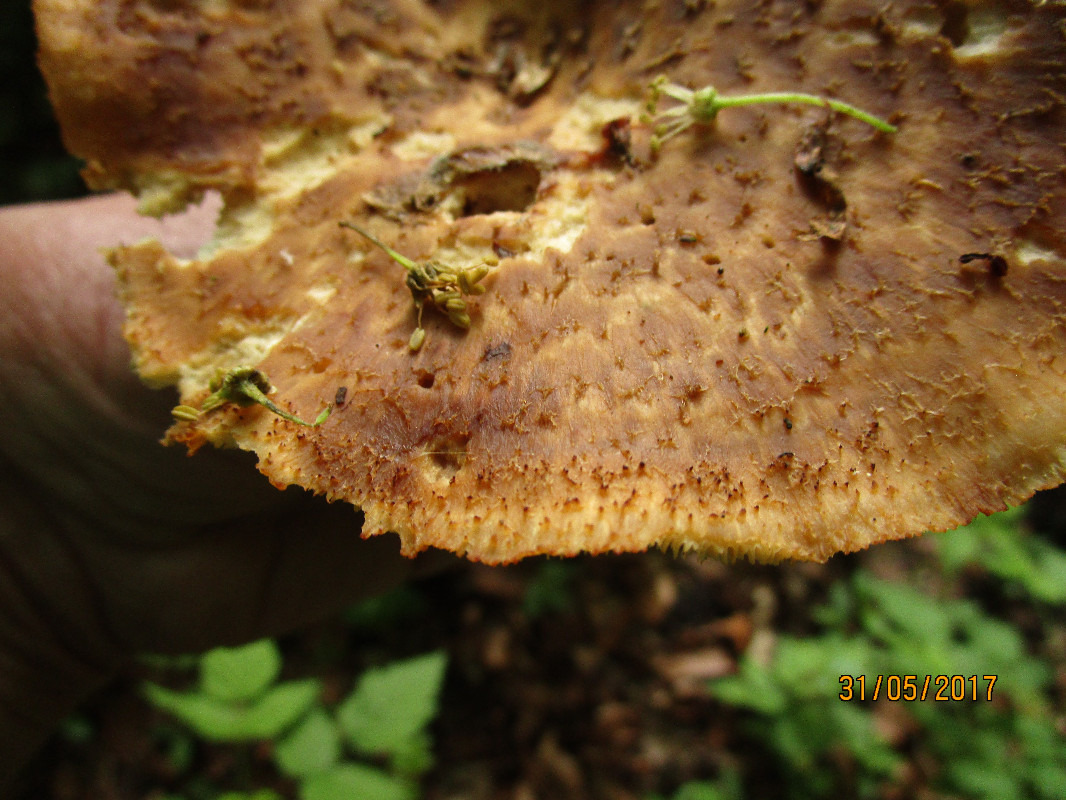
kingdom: Fungi
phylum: Basidiomycota
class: Agaricomycetes
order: Polyporales
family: Polyporaceae
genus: Polyporus
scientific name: Polyporus tuberaster
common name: knoldet stilkporesvamp
